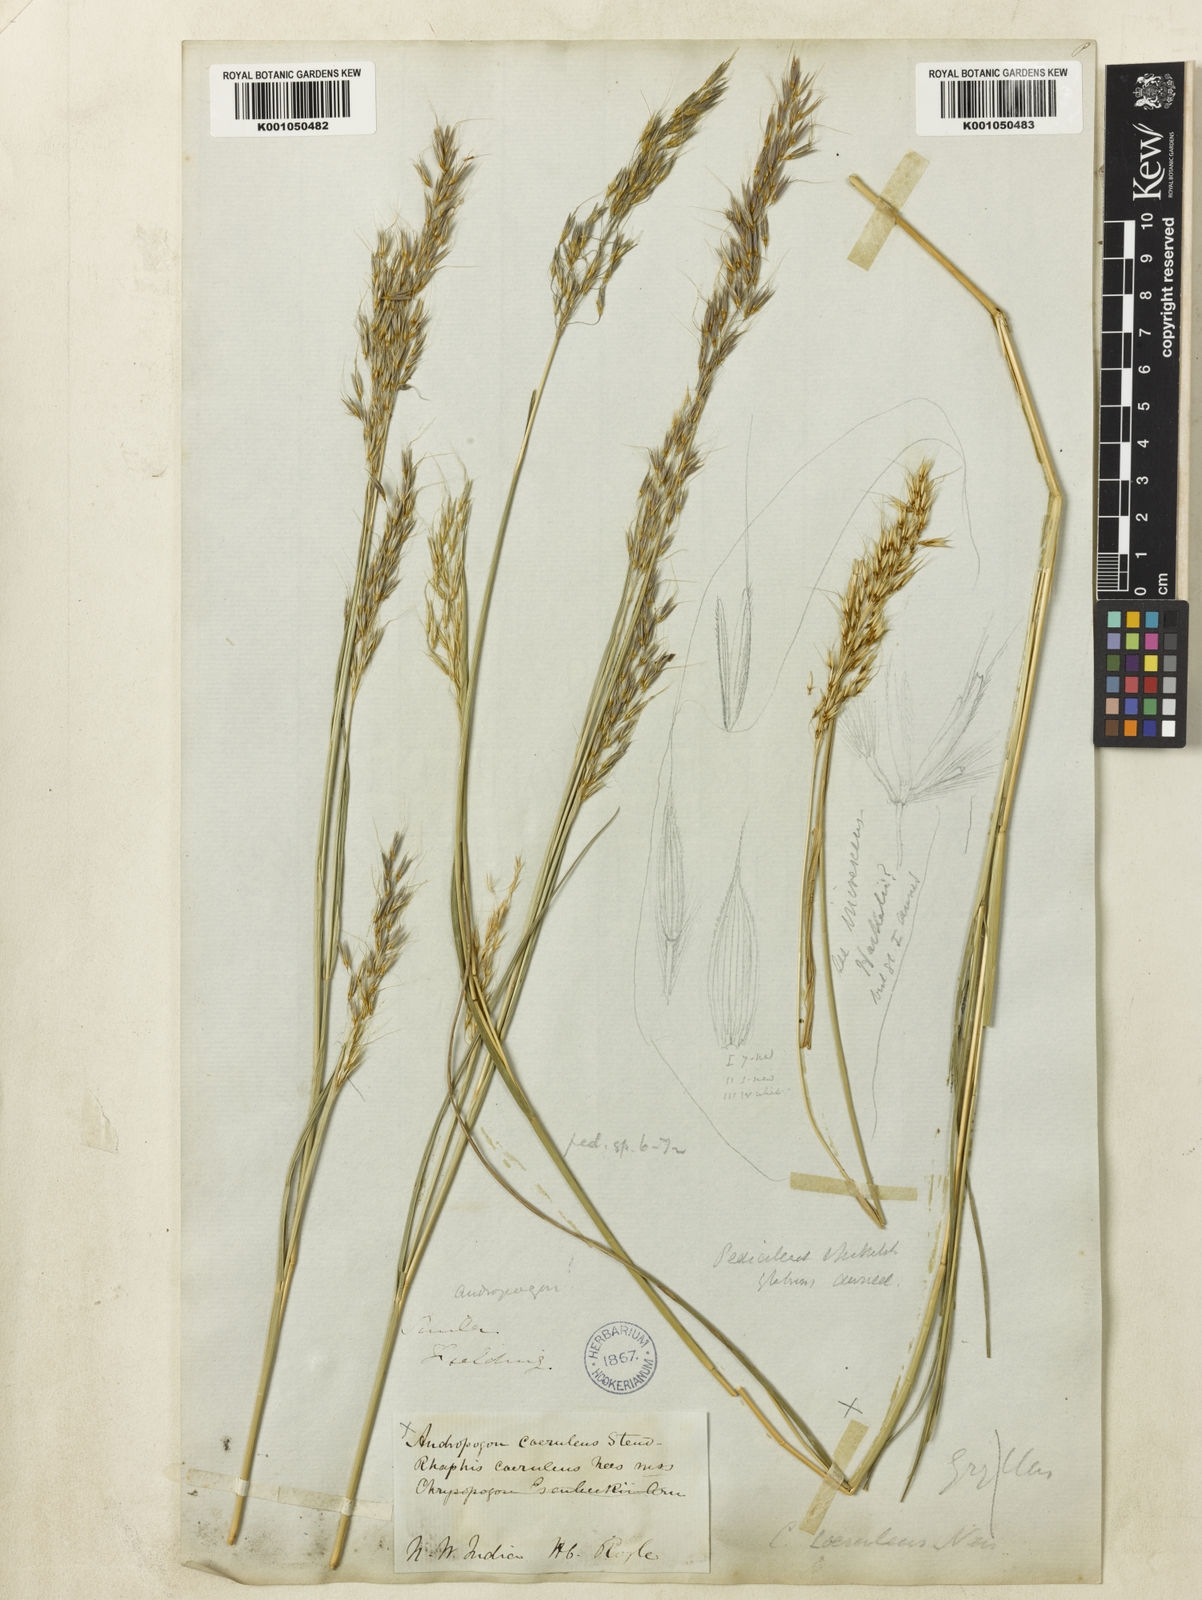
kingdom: Plantae
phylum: Tracheophyta
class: Liliopsida
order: Poales
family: Poaceae
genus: Chrysopogon
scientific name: Chrysopogon serrulatus
